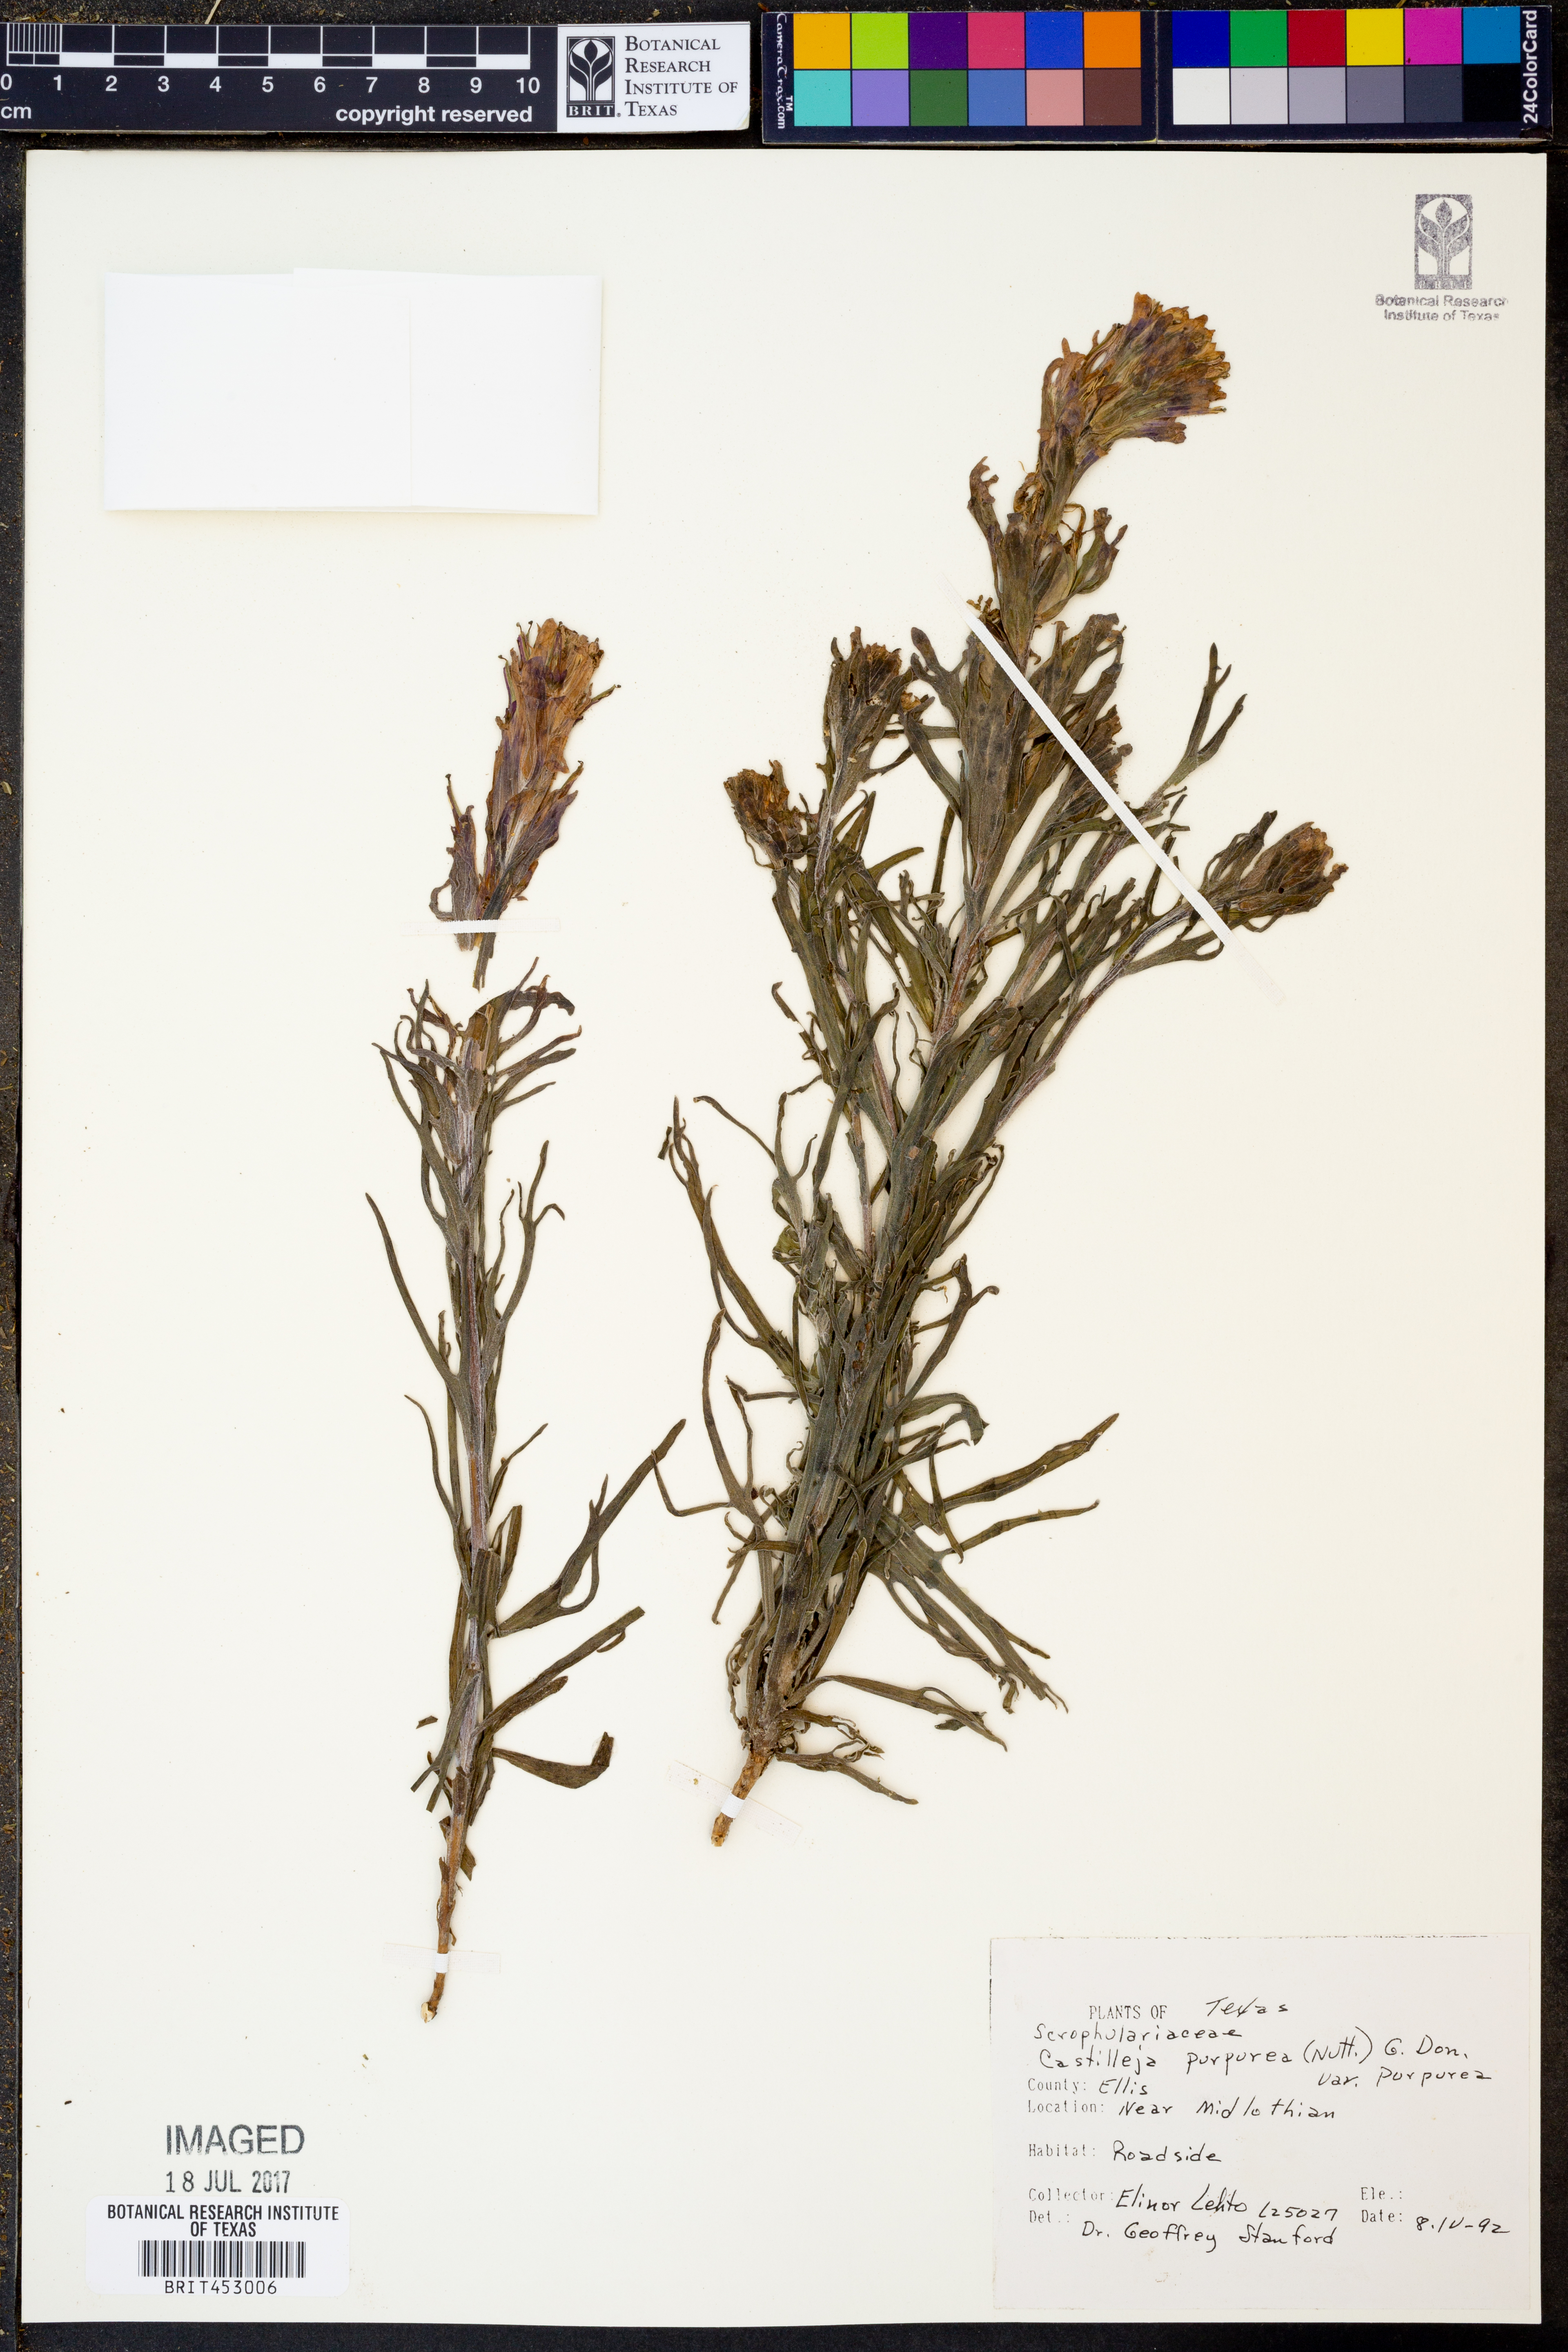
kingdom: Plantae
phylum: Tracheophyta
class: Magnoliopsida
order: Lamiales
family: Orobanchaceae
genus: Castilleja
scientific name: Castilleja purpurea
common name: Plains paintbrush
